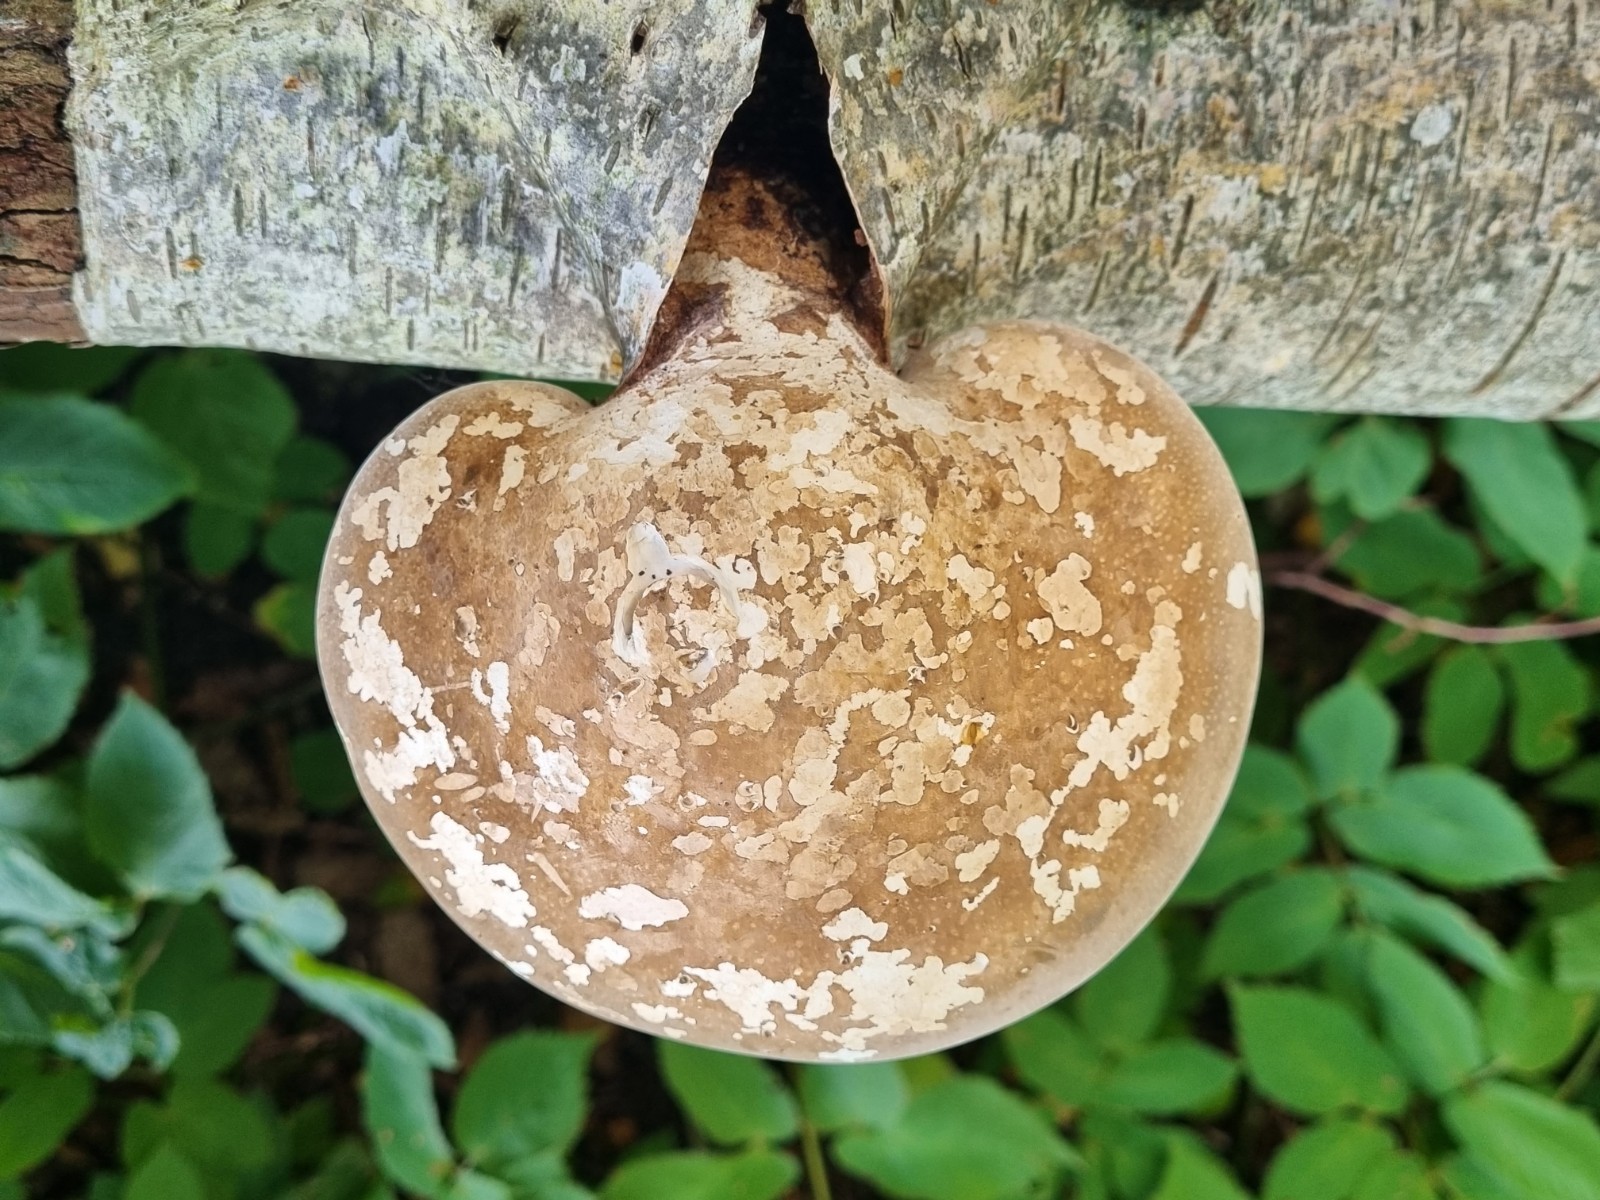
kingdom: Fungi
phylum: Basidiomycota
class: Agaricomycetes
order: Polyporales
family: Fomitopsidaceae
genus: Fomitopsis
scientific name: Fomitopsis betulina
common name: birkeporesvamp
